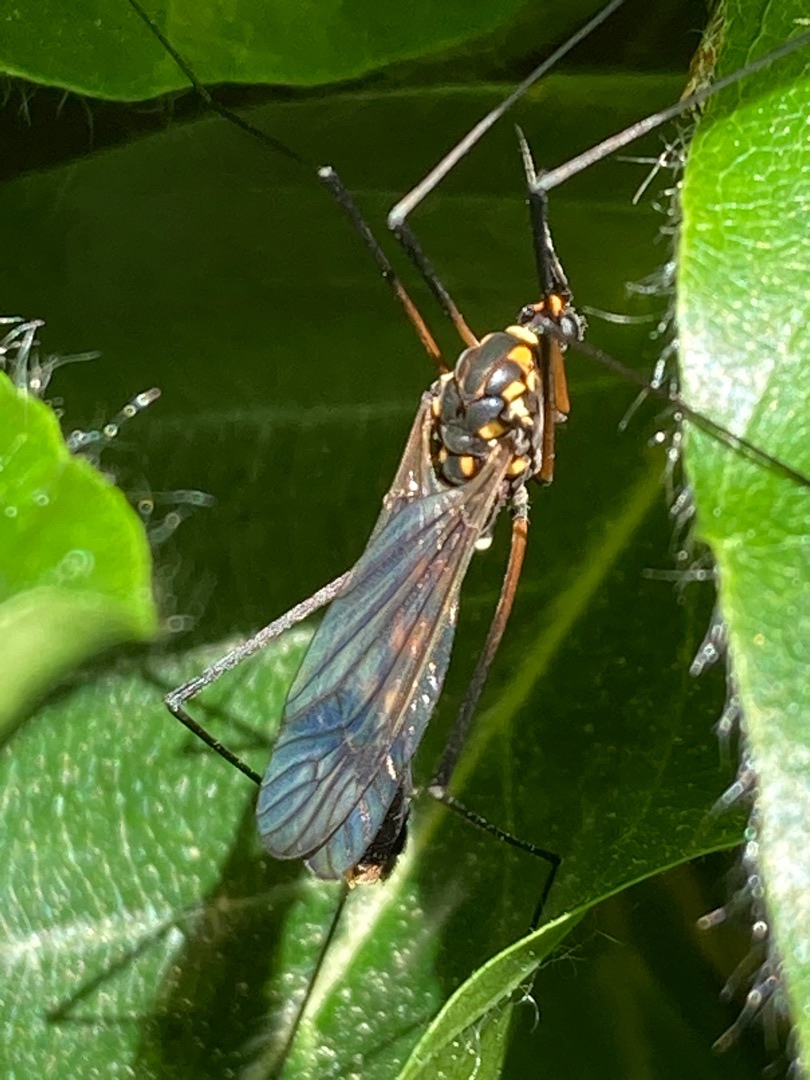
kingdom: Animalia
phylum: Arthropoda
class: Insecta
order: Diptera
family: Tipulidae
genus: Nephrotoma
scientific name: Nephrotoma crocata
